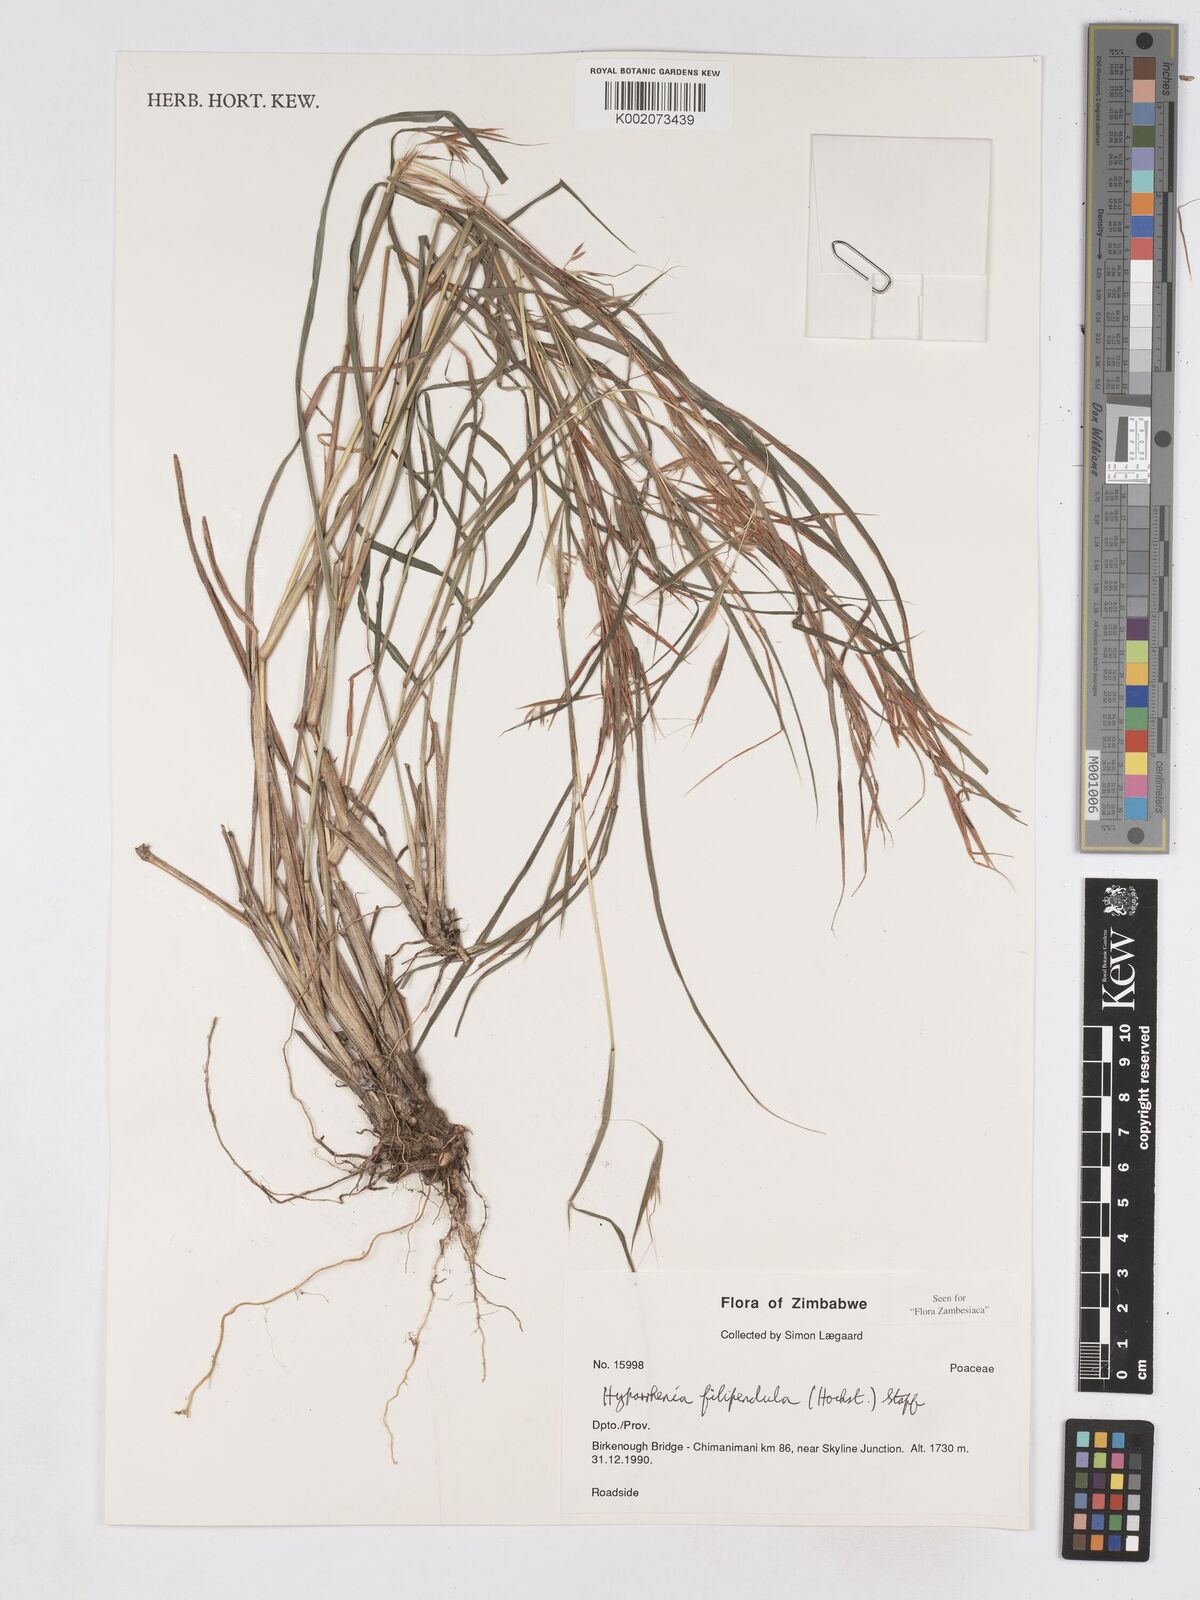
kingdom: Plantae
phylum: Tracheophyta
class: Liliopsida
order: Poales
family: Poaceae
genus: Hyparrhenia
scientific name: Hyparrhenia filipendula
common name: Tambookie grass
